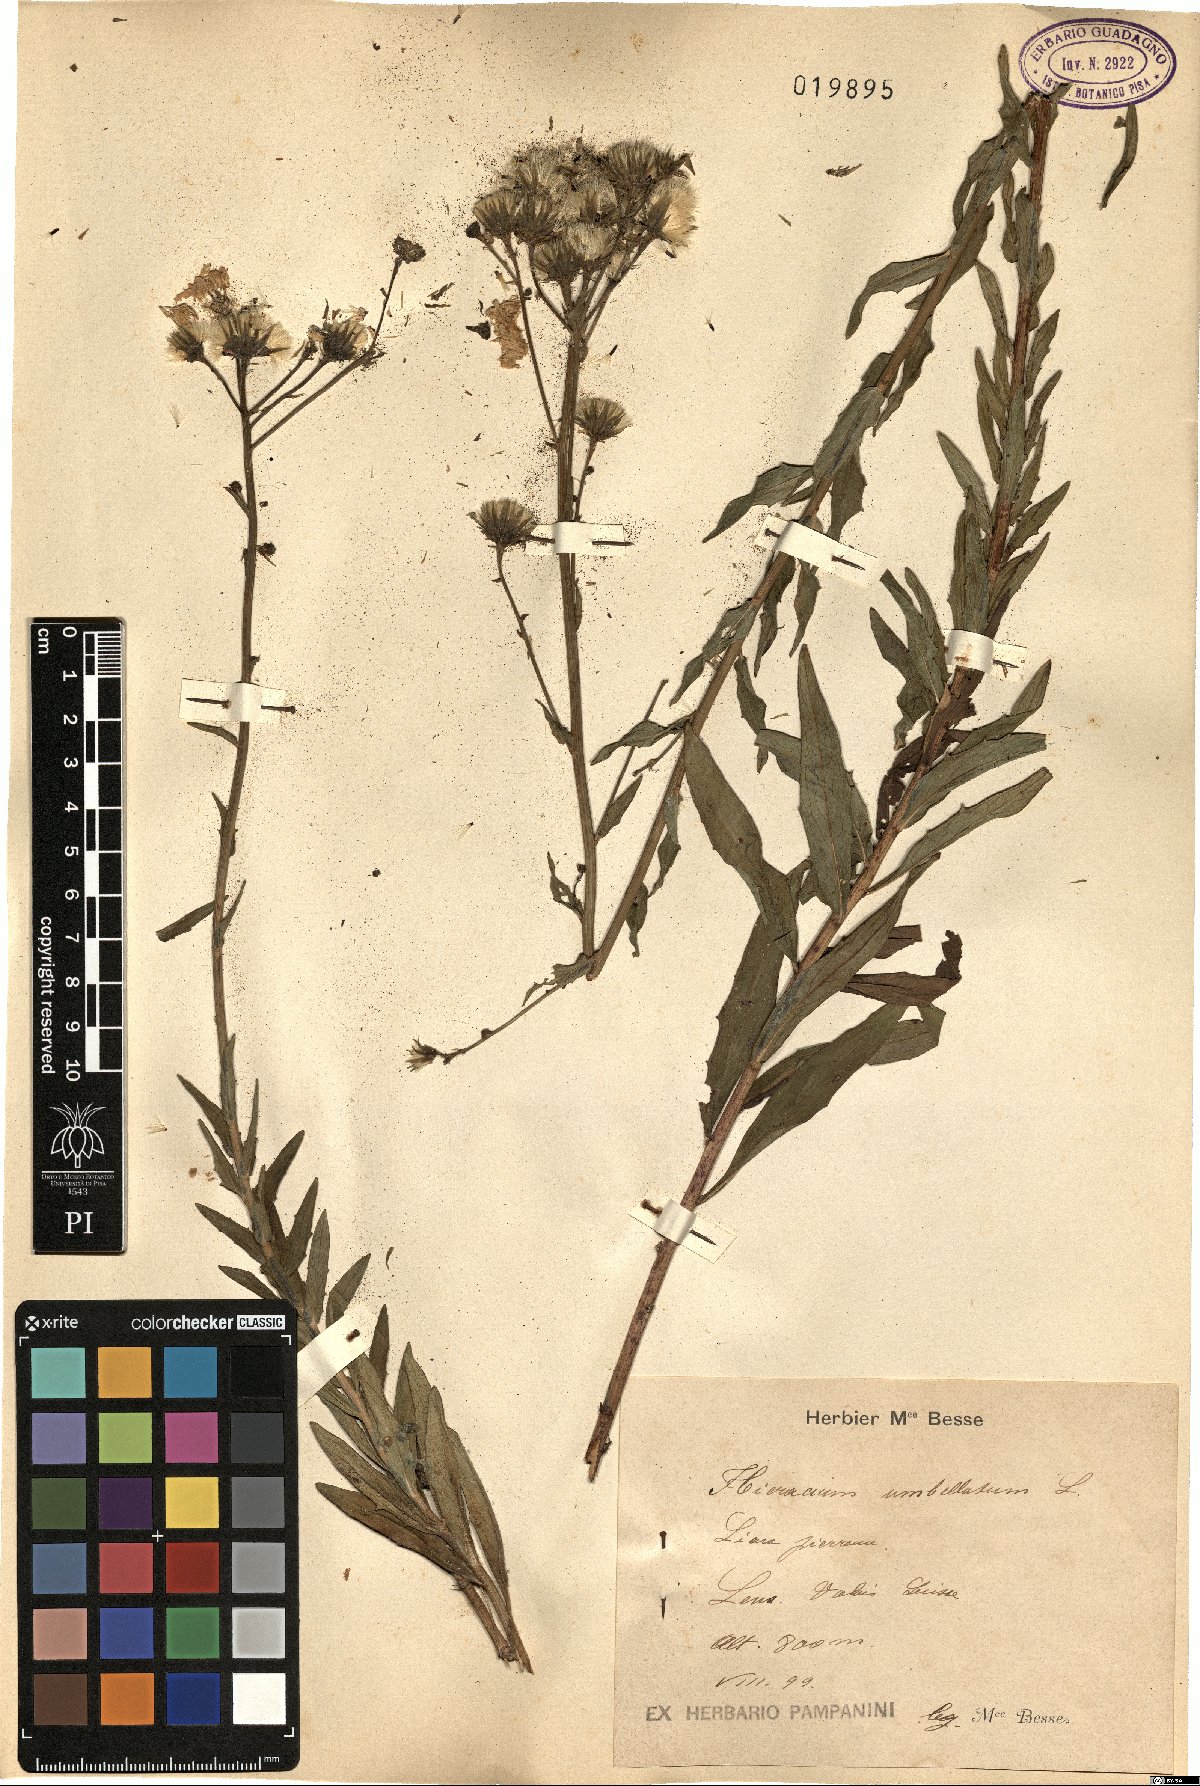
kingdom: Plantae
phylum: Tracheophyta
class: Magnoliopsida
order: Asterales
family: Asteraceae
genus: Hieracium
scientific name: Hieracium umbellatum
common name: Northern hawkweed
